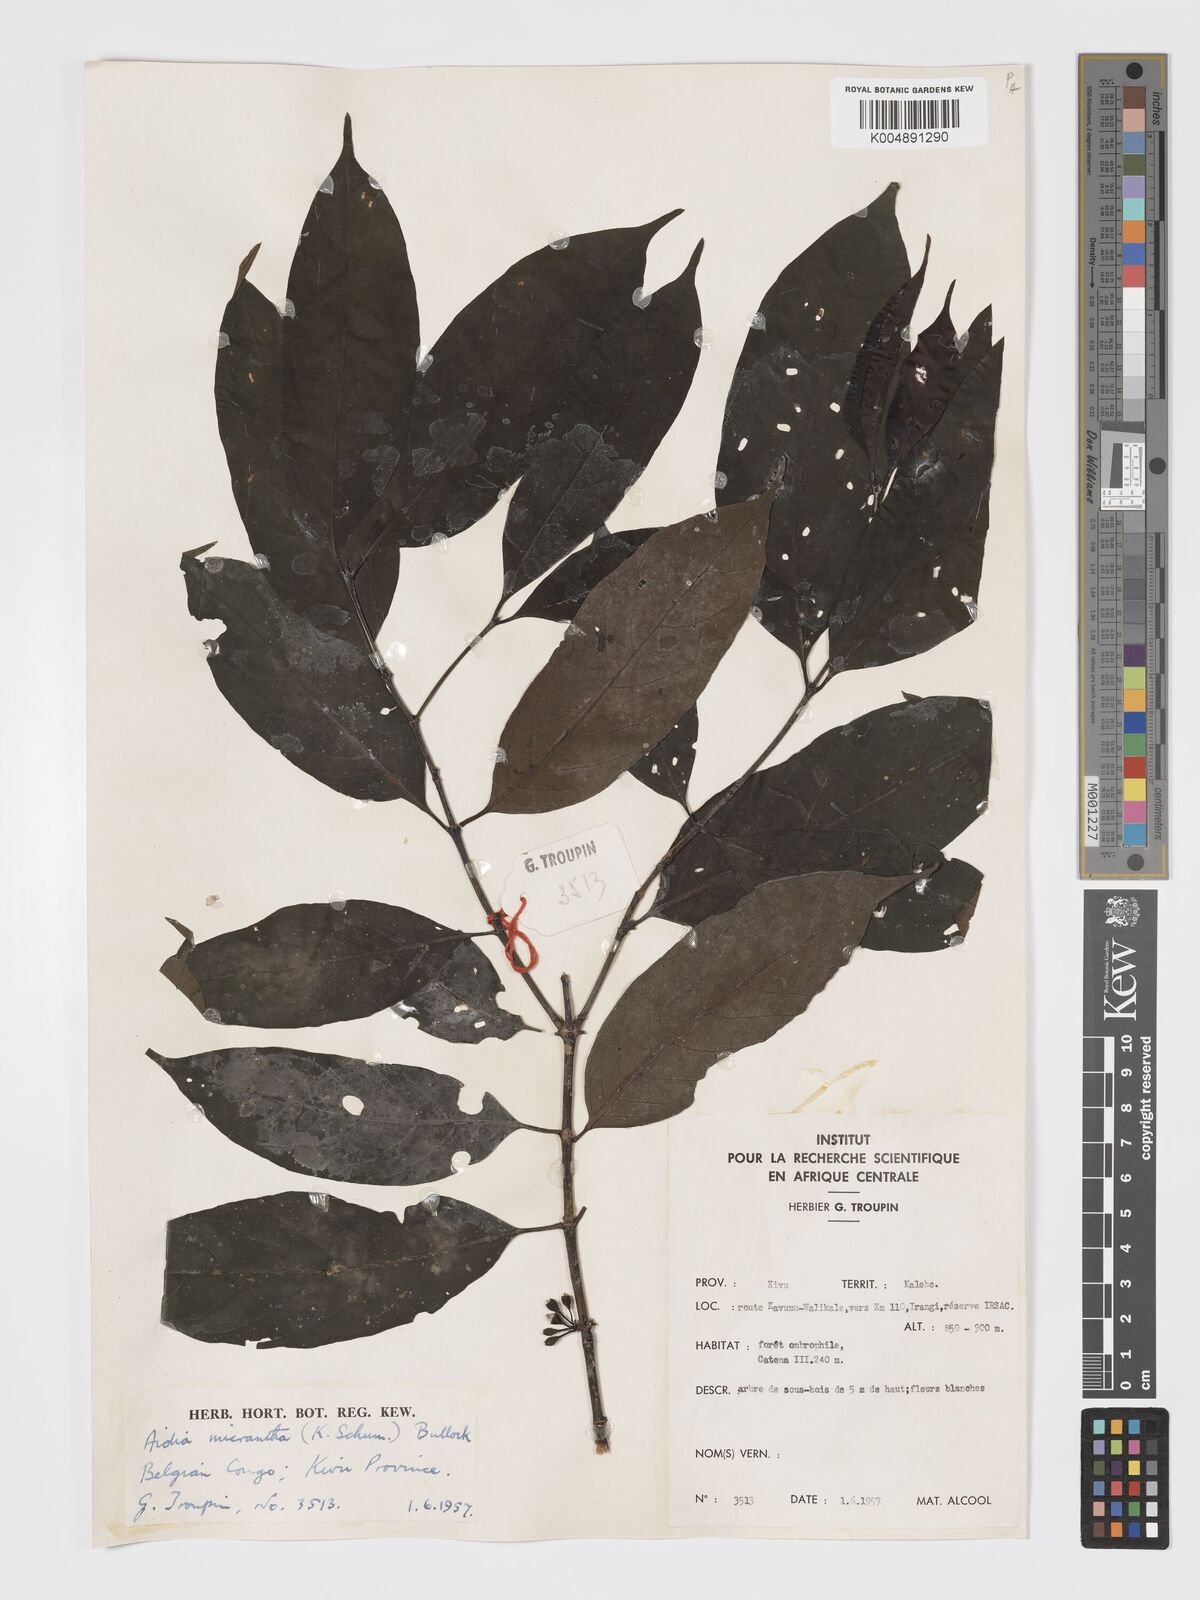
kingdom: Plantae
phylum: Tracheophyta
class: Magnoliopsida
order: Gentianales
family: Rubiaceae
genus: Aidia
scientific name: Aidia micrantha
